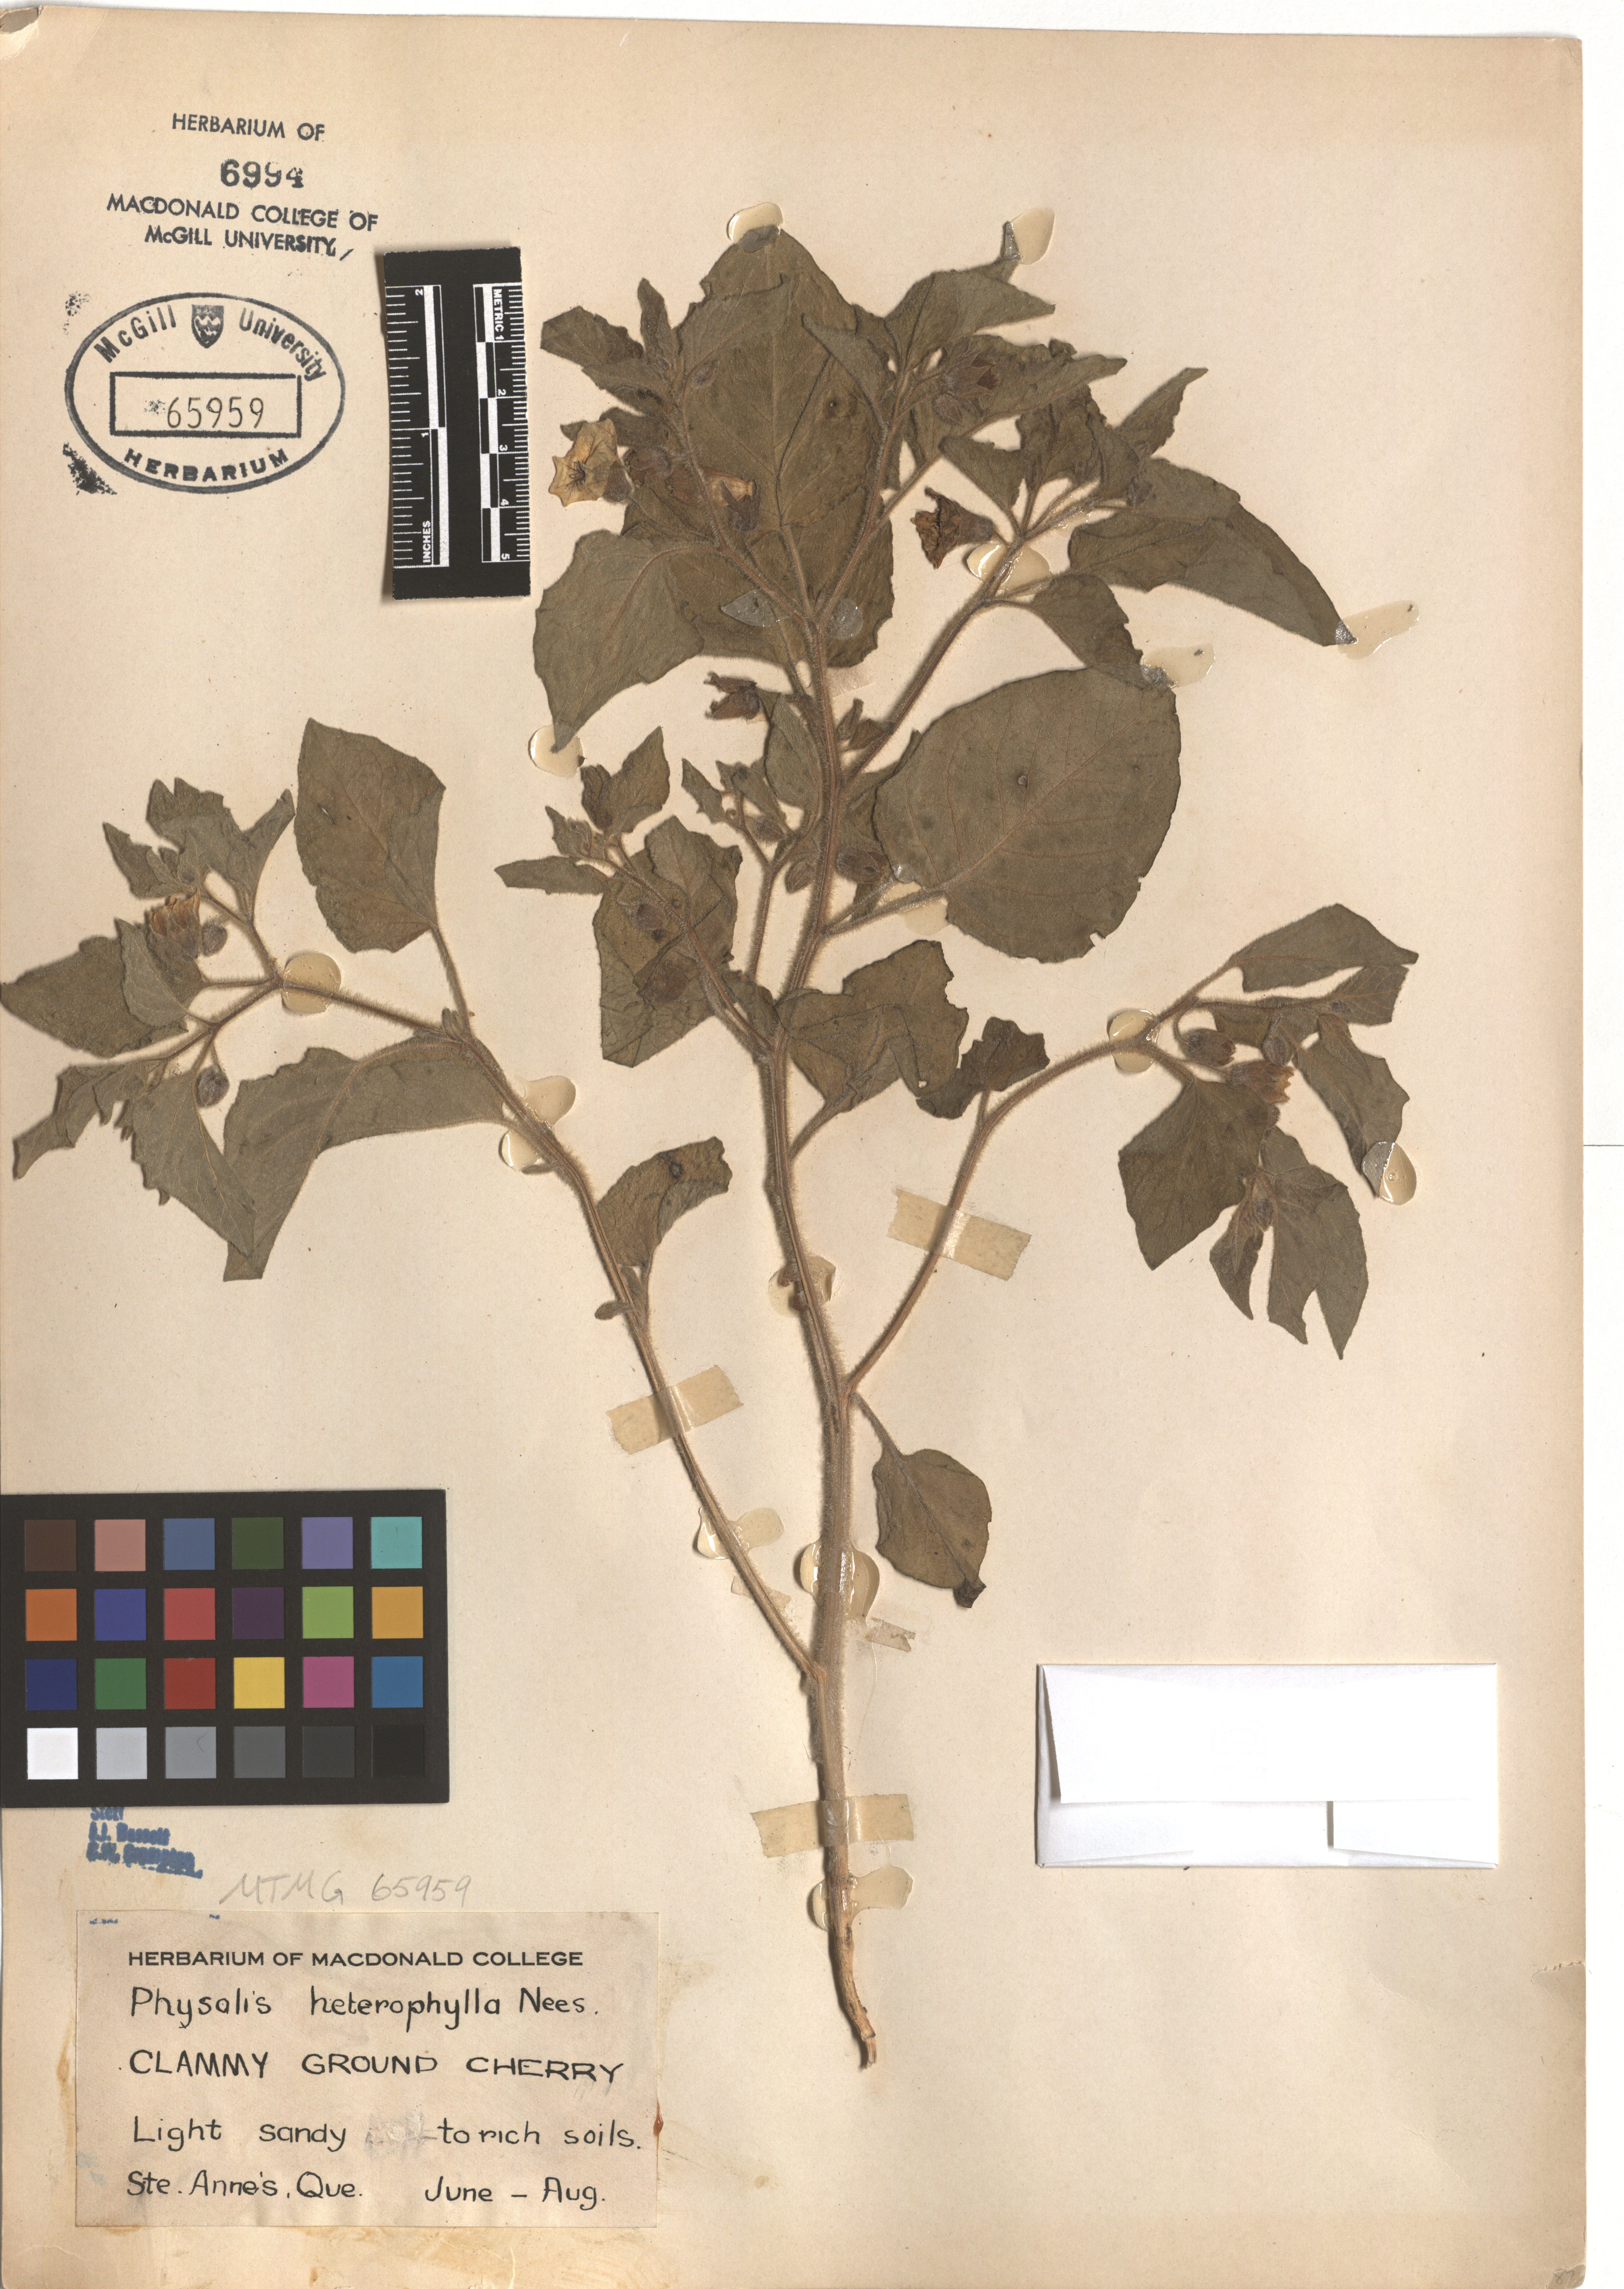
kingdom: Plantae
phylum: Tracheophyta
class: Magnoliopsida
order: Solanales
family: Solanaceae
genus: Physalis
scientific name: Physalis heterophylla
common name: Clammy ground-cherry
